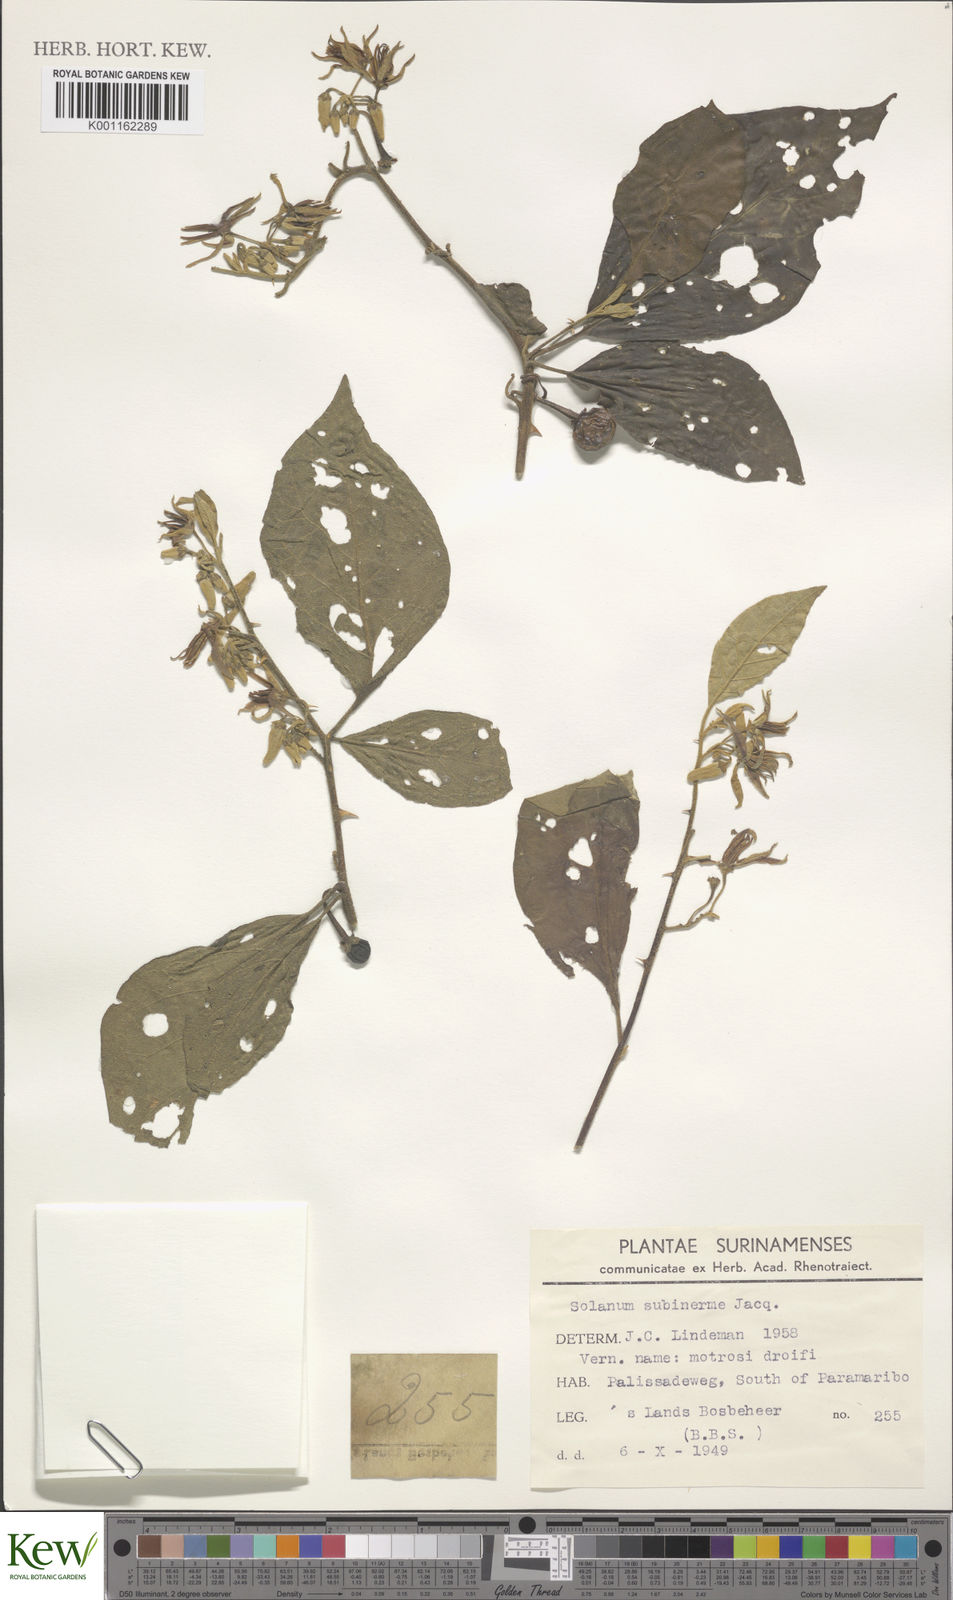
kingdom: Plantae
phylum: Tracheophyta
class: Magnoliopsida
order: Solanales
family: Solanaceae
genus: Solanum
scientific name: Solanum subinerme
